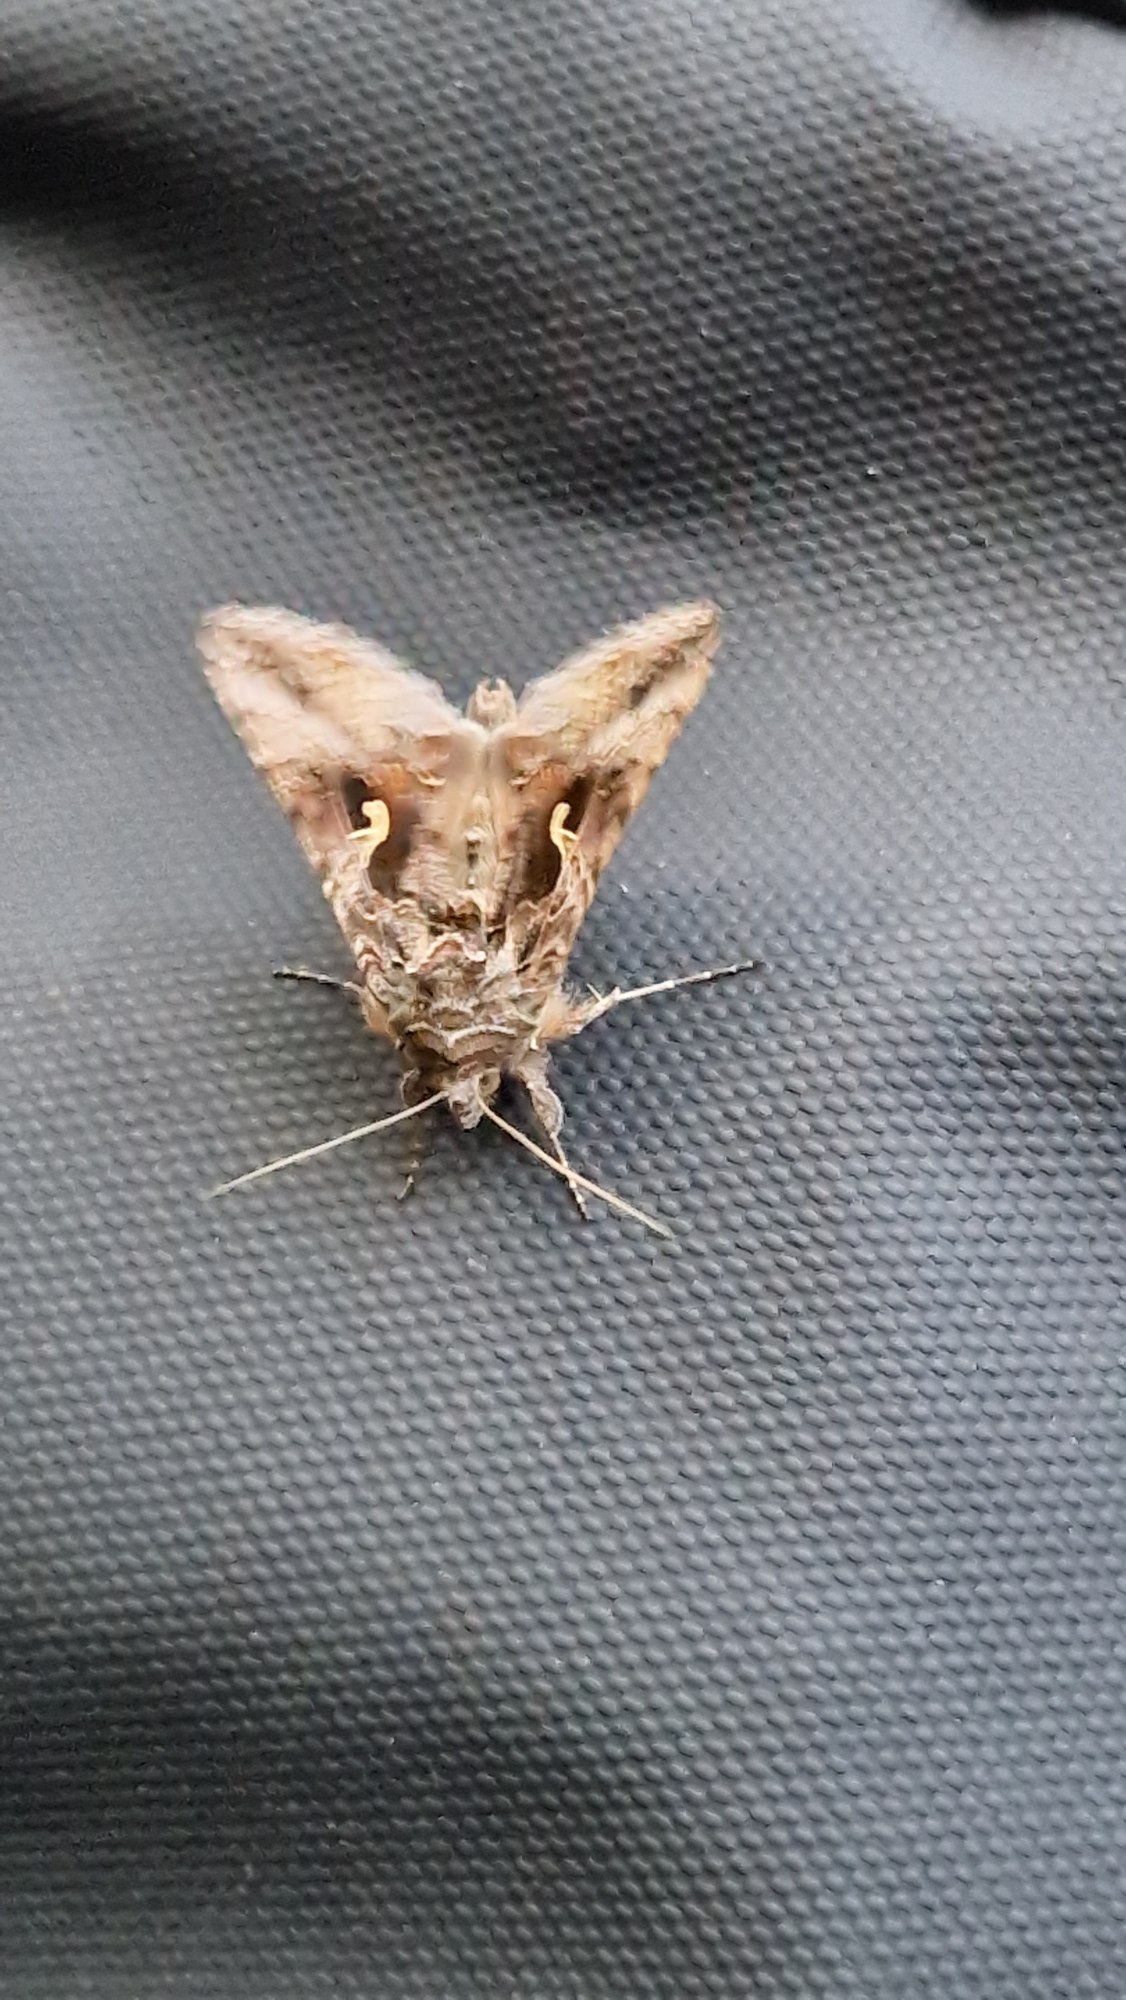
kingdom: Animalia
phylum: Arthropoda
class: Insecta
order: Lepidoptera
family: Noctuidae
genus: Autographa
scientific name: Autographa gamma
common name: Gammaugle
